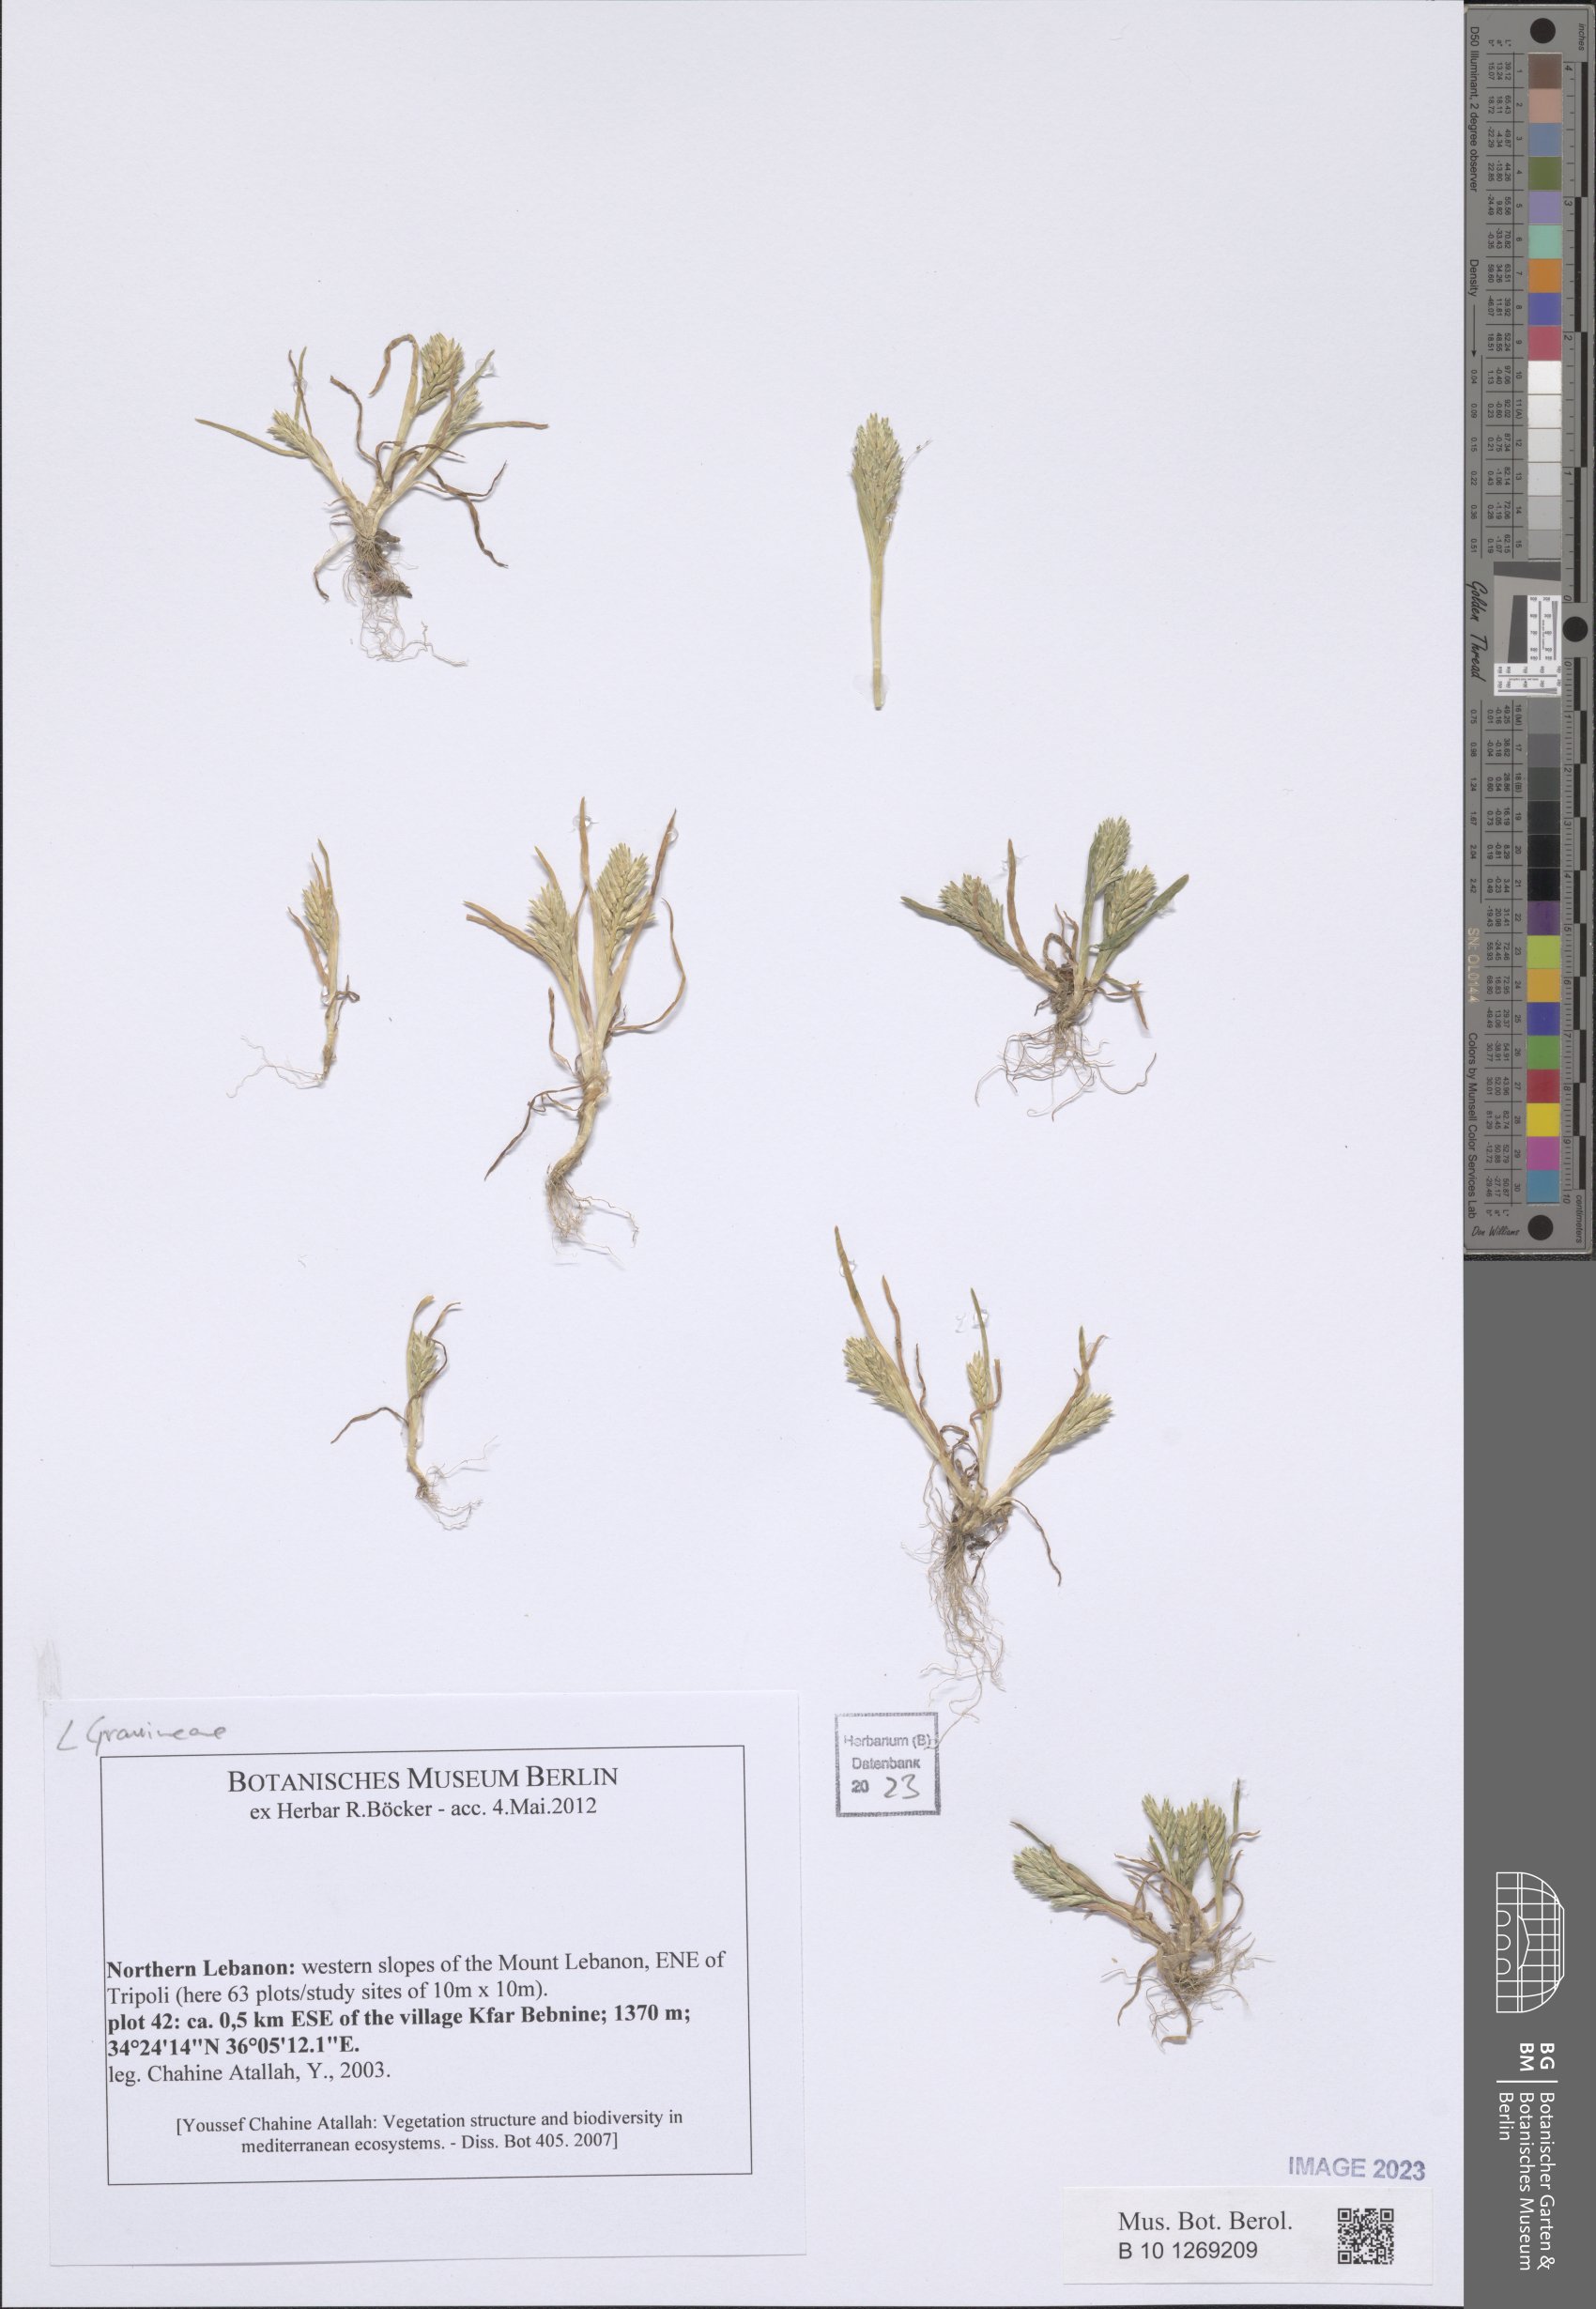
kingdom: Plantae
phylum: Tracheophyta
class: Liliopsida
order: Poales
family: Poaceae
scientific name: Poaceae
